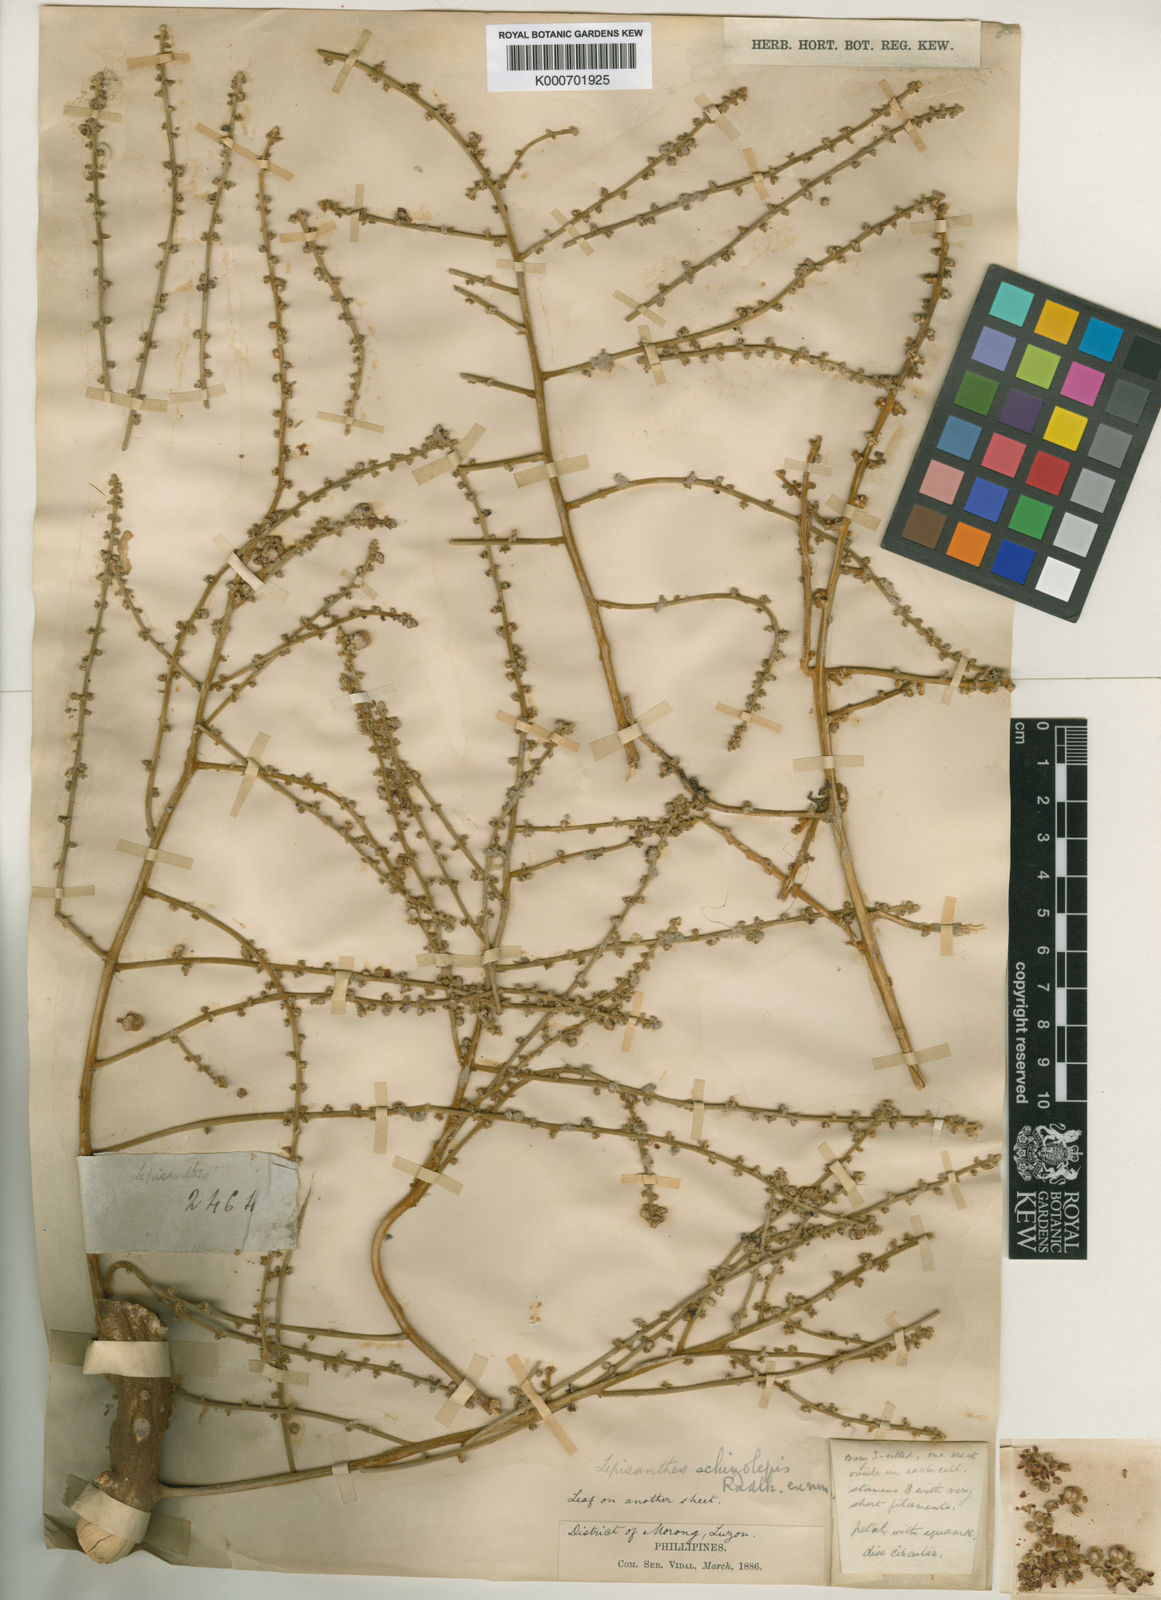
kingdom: Plantae
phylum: Tracheophyta
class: Magnoliopsida
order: Sapindales
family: Sapindaceae
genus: Lepisanthes
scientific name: Lepisanthes tetraphylla
